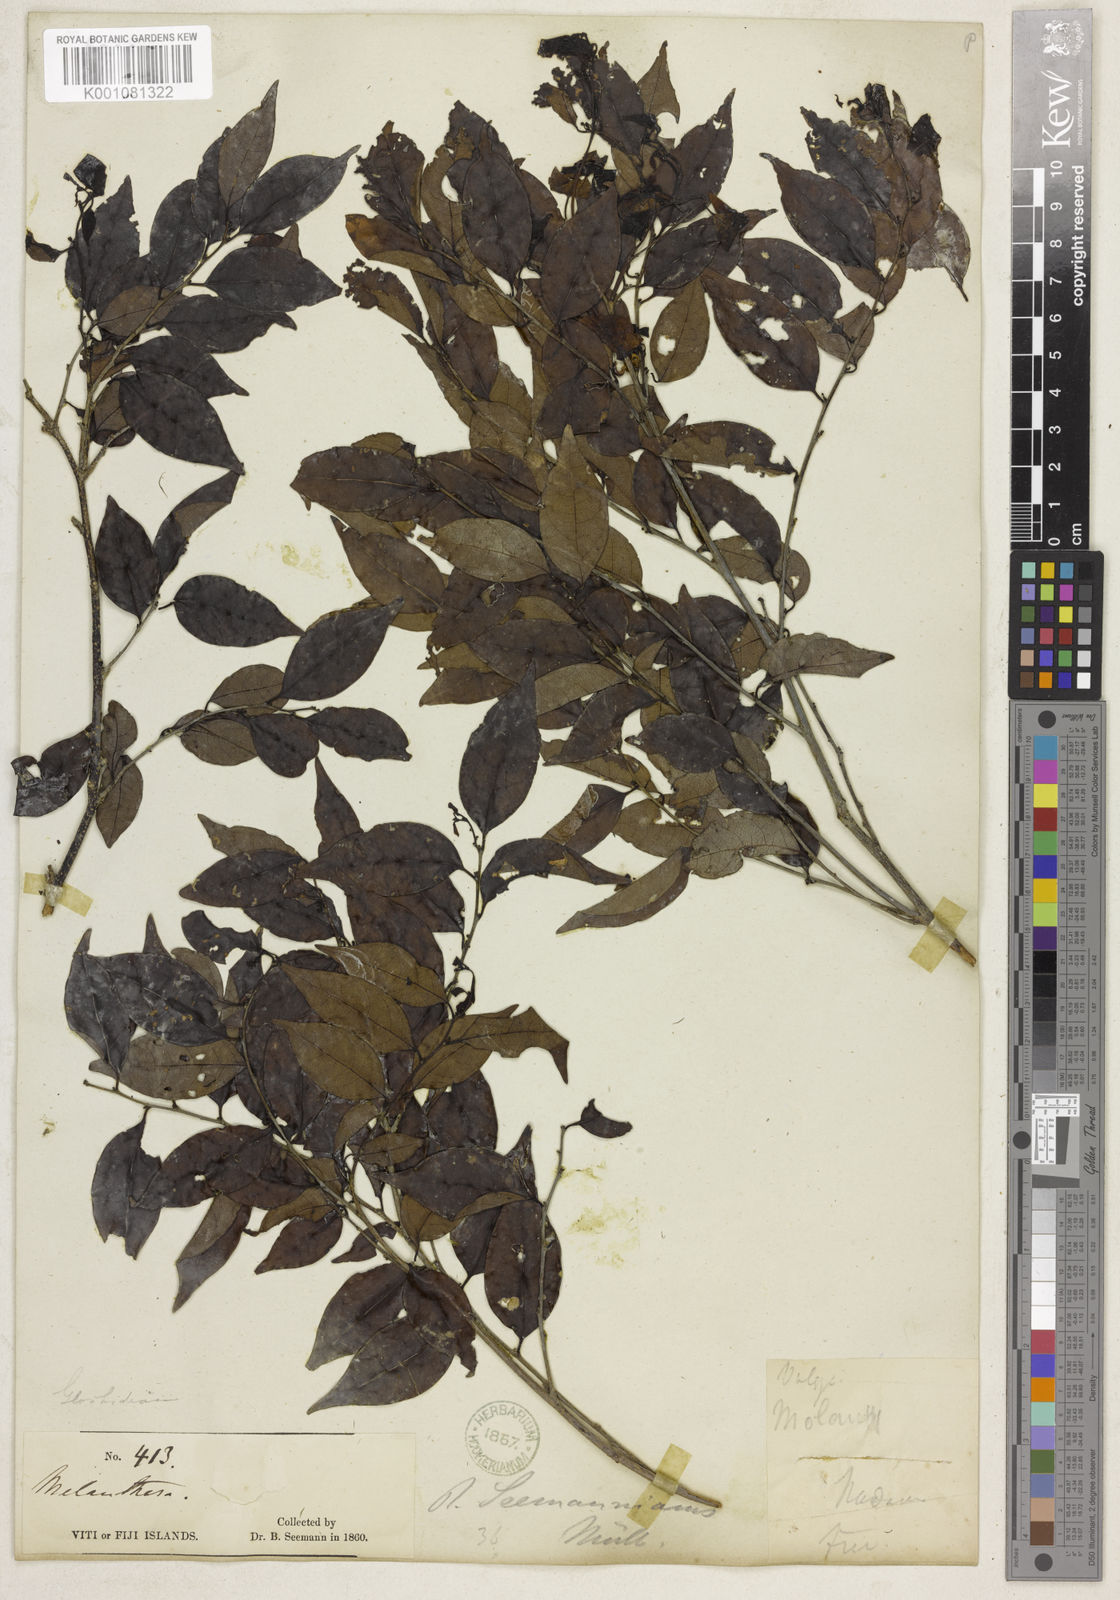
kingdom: Plantae
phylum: Tracheophyta
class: Magnoliopsida
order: Malpighiales
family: Phyllanthaceae
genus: Glochidion
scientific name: Glochidion
